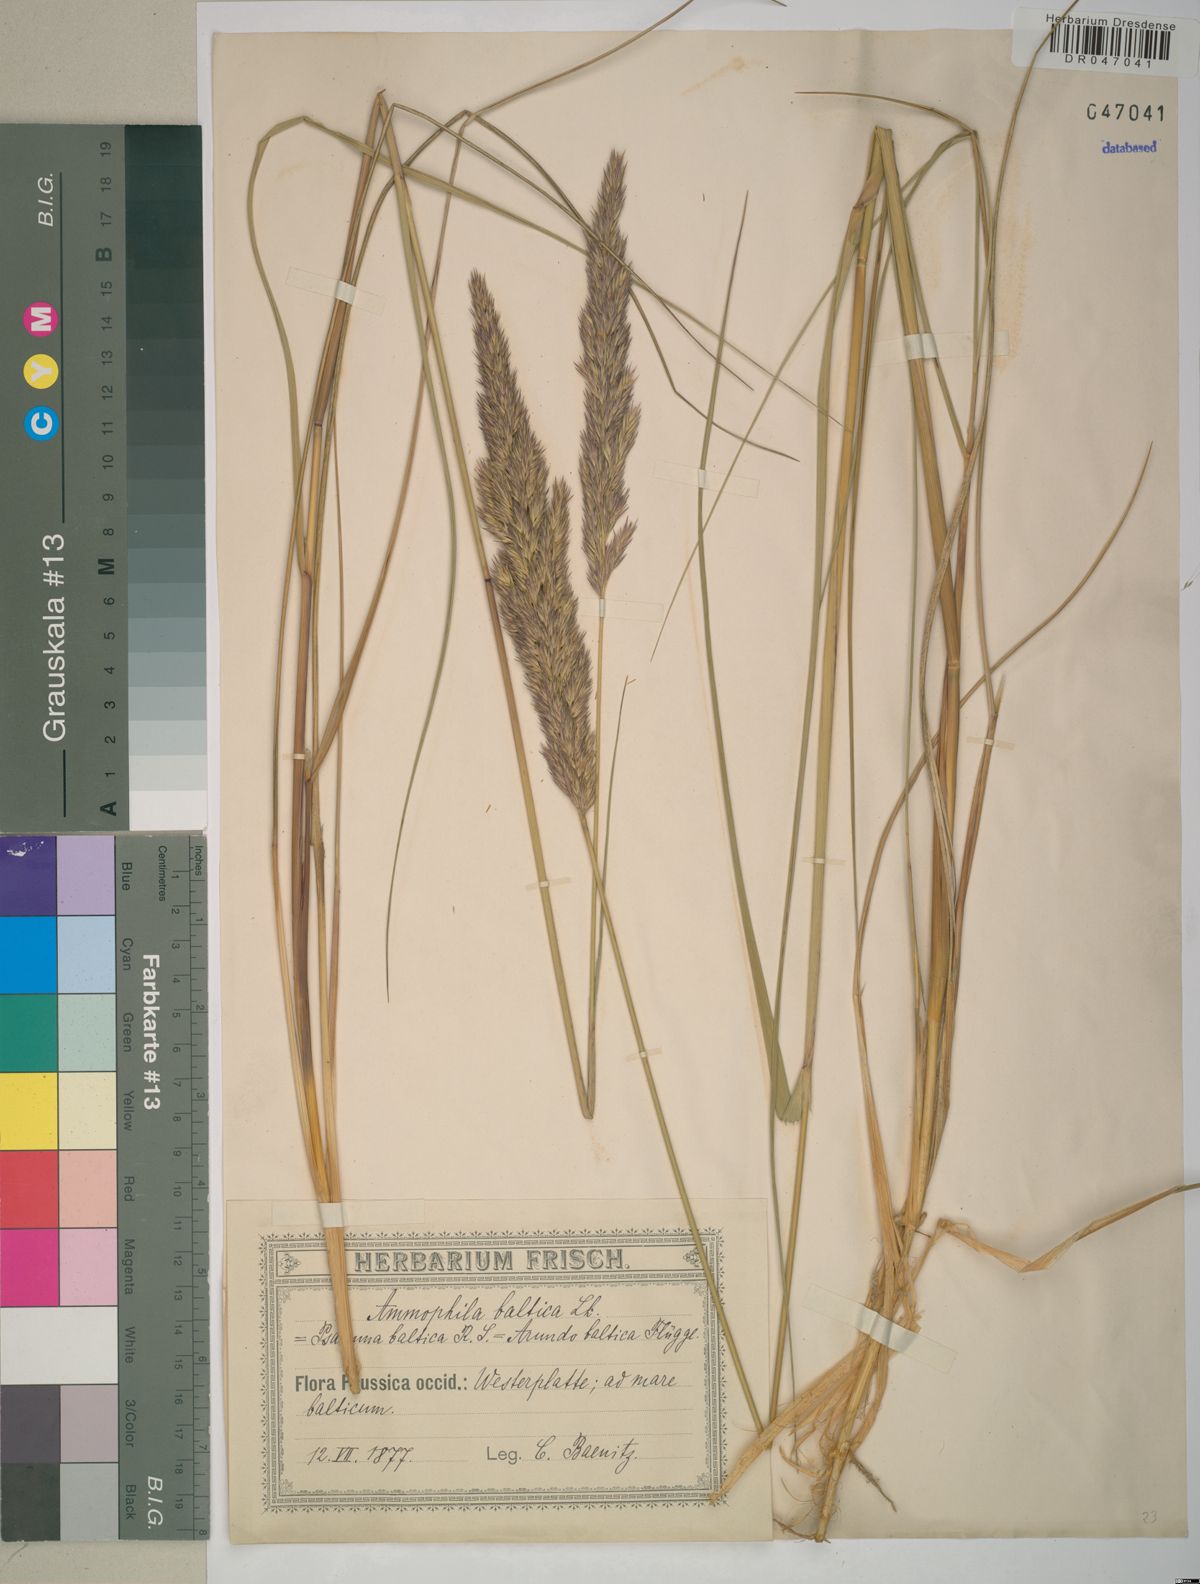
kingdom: Plantae
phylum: Tracheophyta
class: Liliopsida
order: Poales
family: Poaceae
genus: Calamagrostis
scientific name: Calamagrostis baltica
